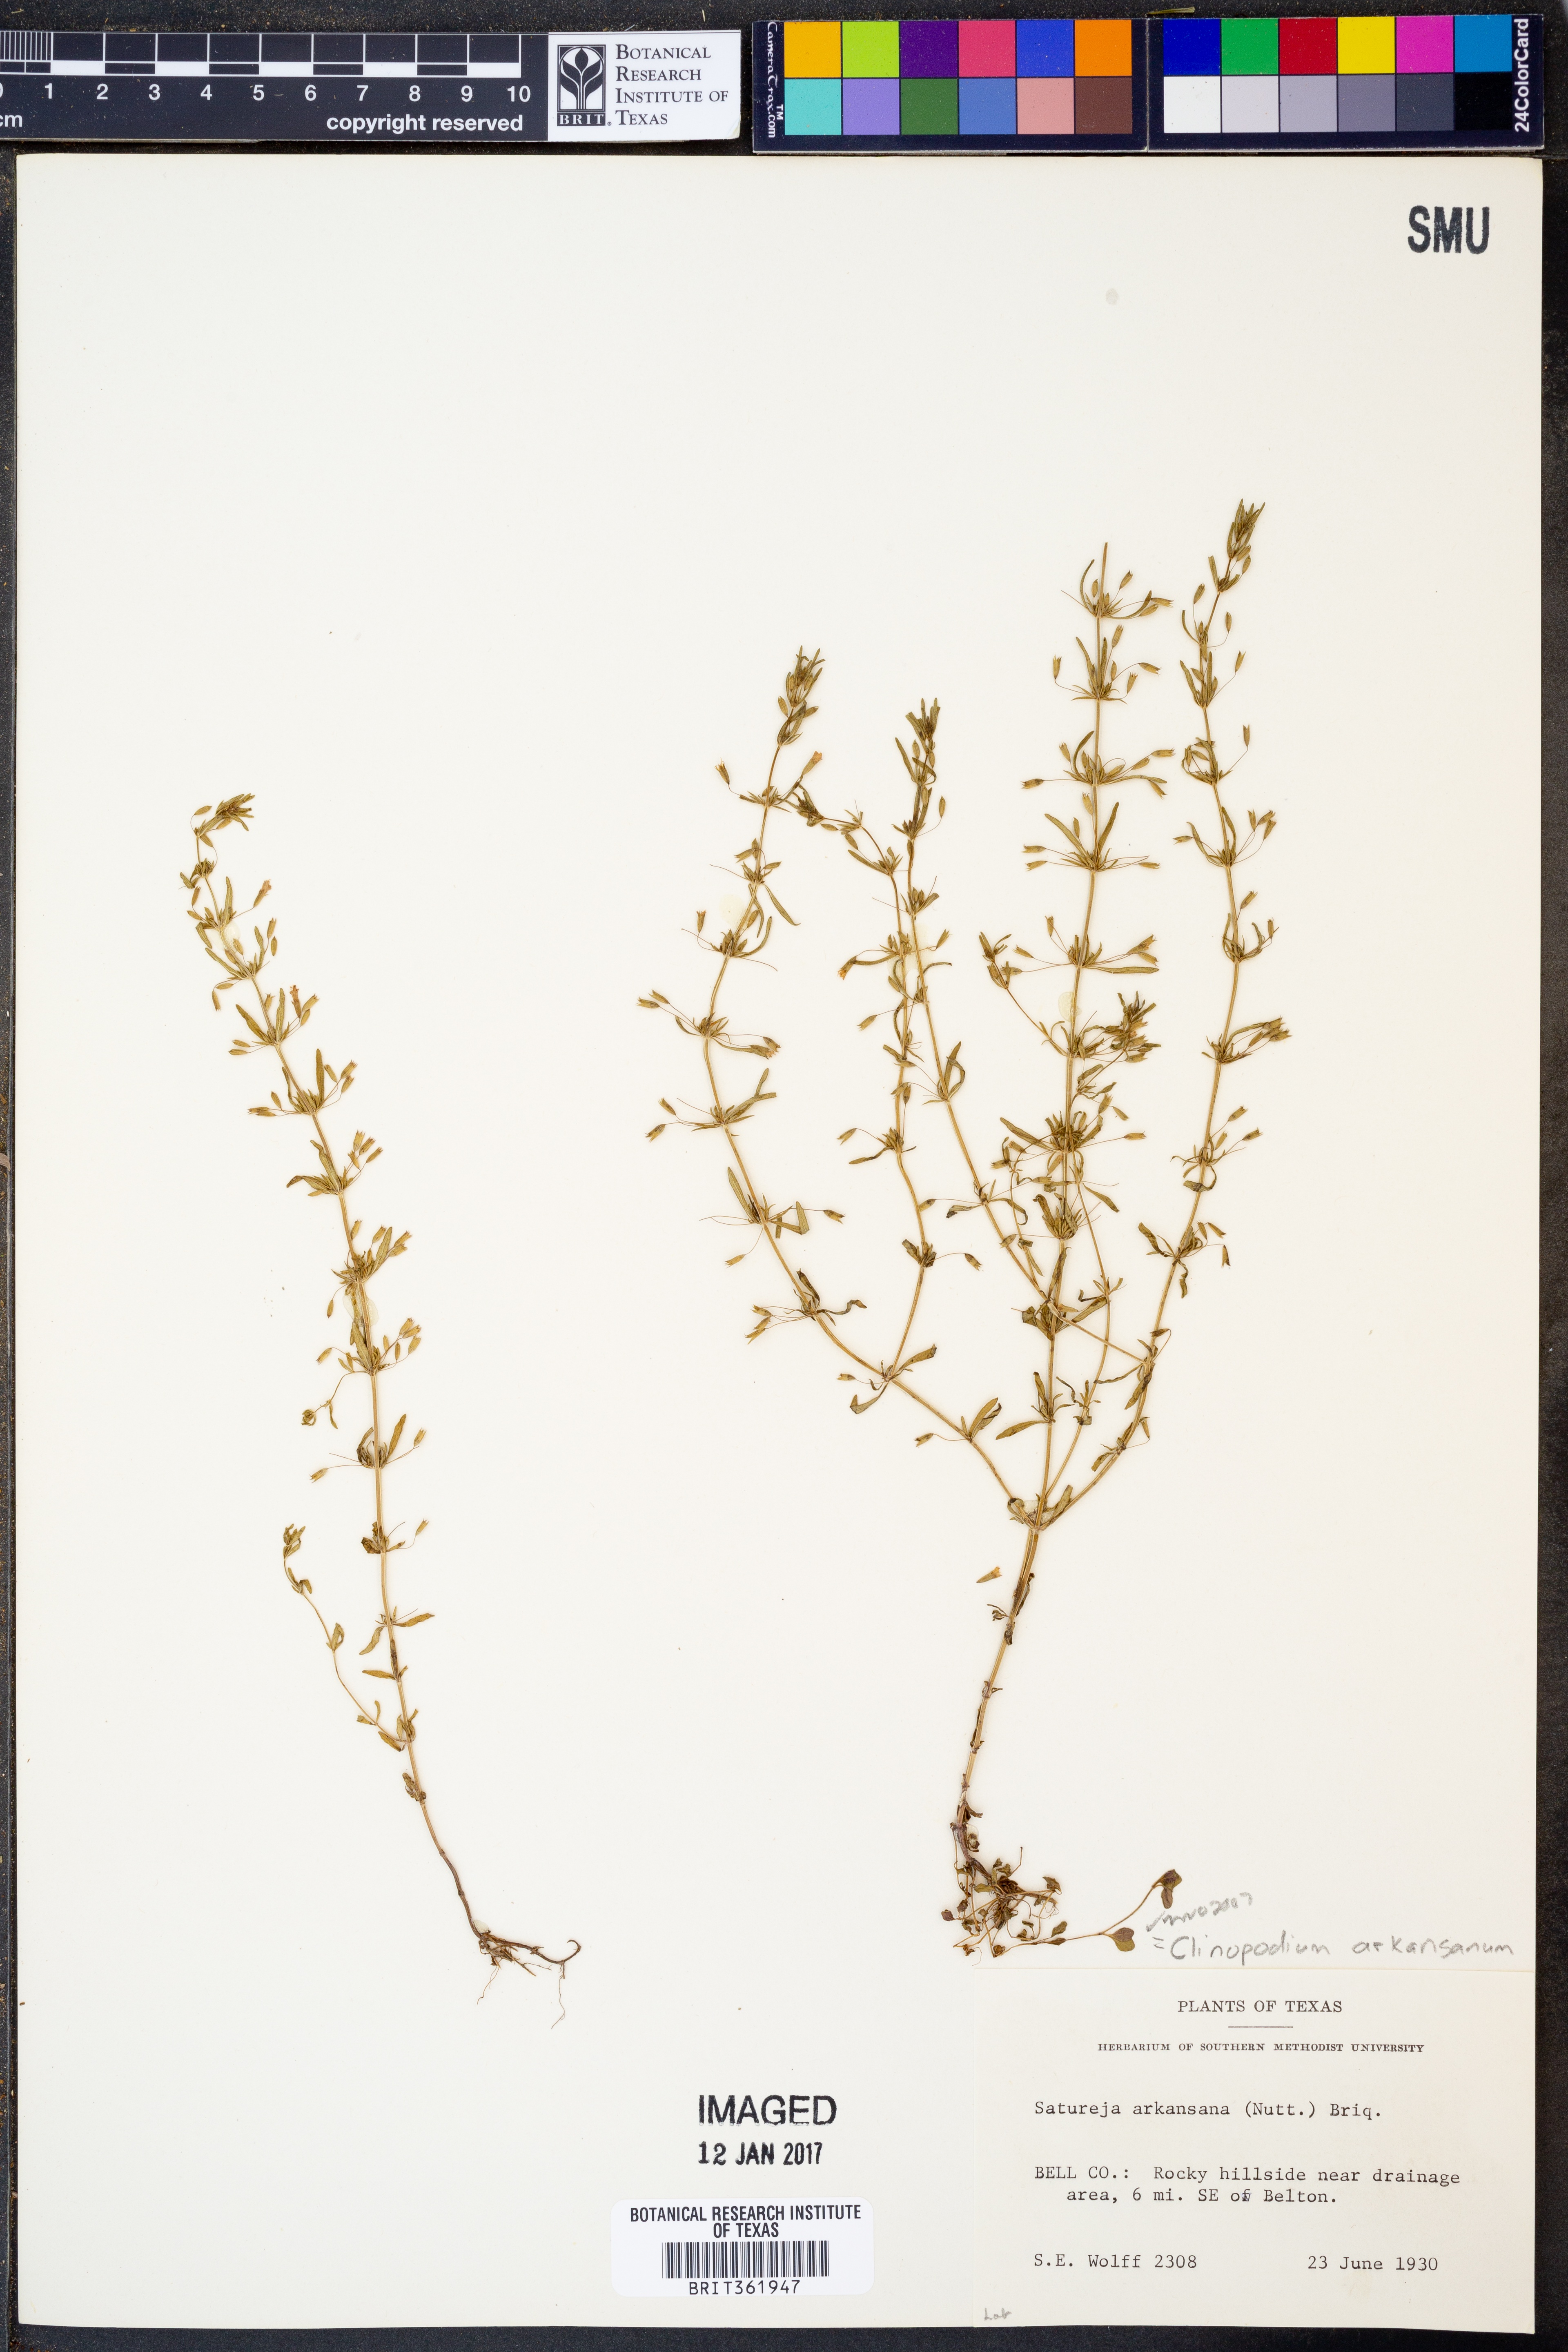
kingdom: Plantae
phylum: Tracheophyta
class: Magnoliopsida
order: Lamiales
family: Lamiaceae
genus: Clinopodium
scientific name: Clinopodium arkansanum
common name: Limestone calamint
